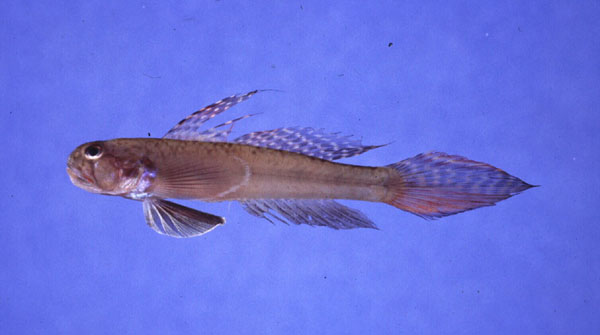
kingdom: Animalia
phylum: Chordata
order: Perciformes
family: Gobiidae
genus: Oligolepis
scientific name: Oligolepis acutipennis
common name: Sharptail goby
